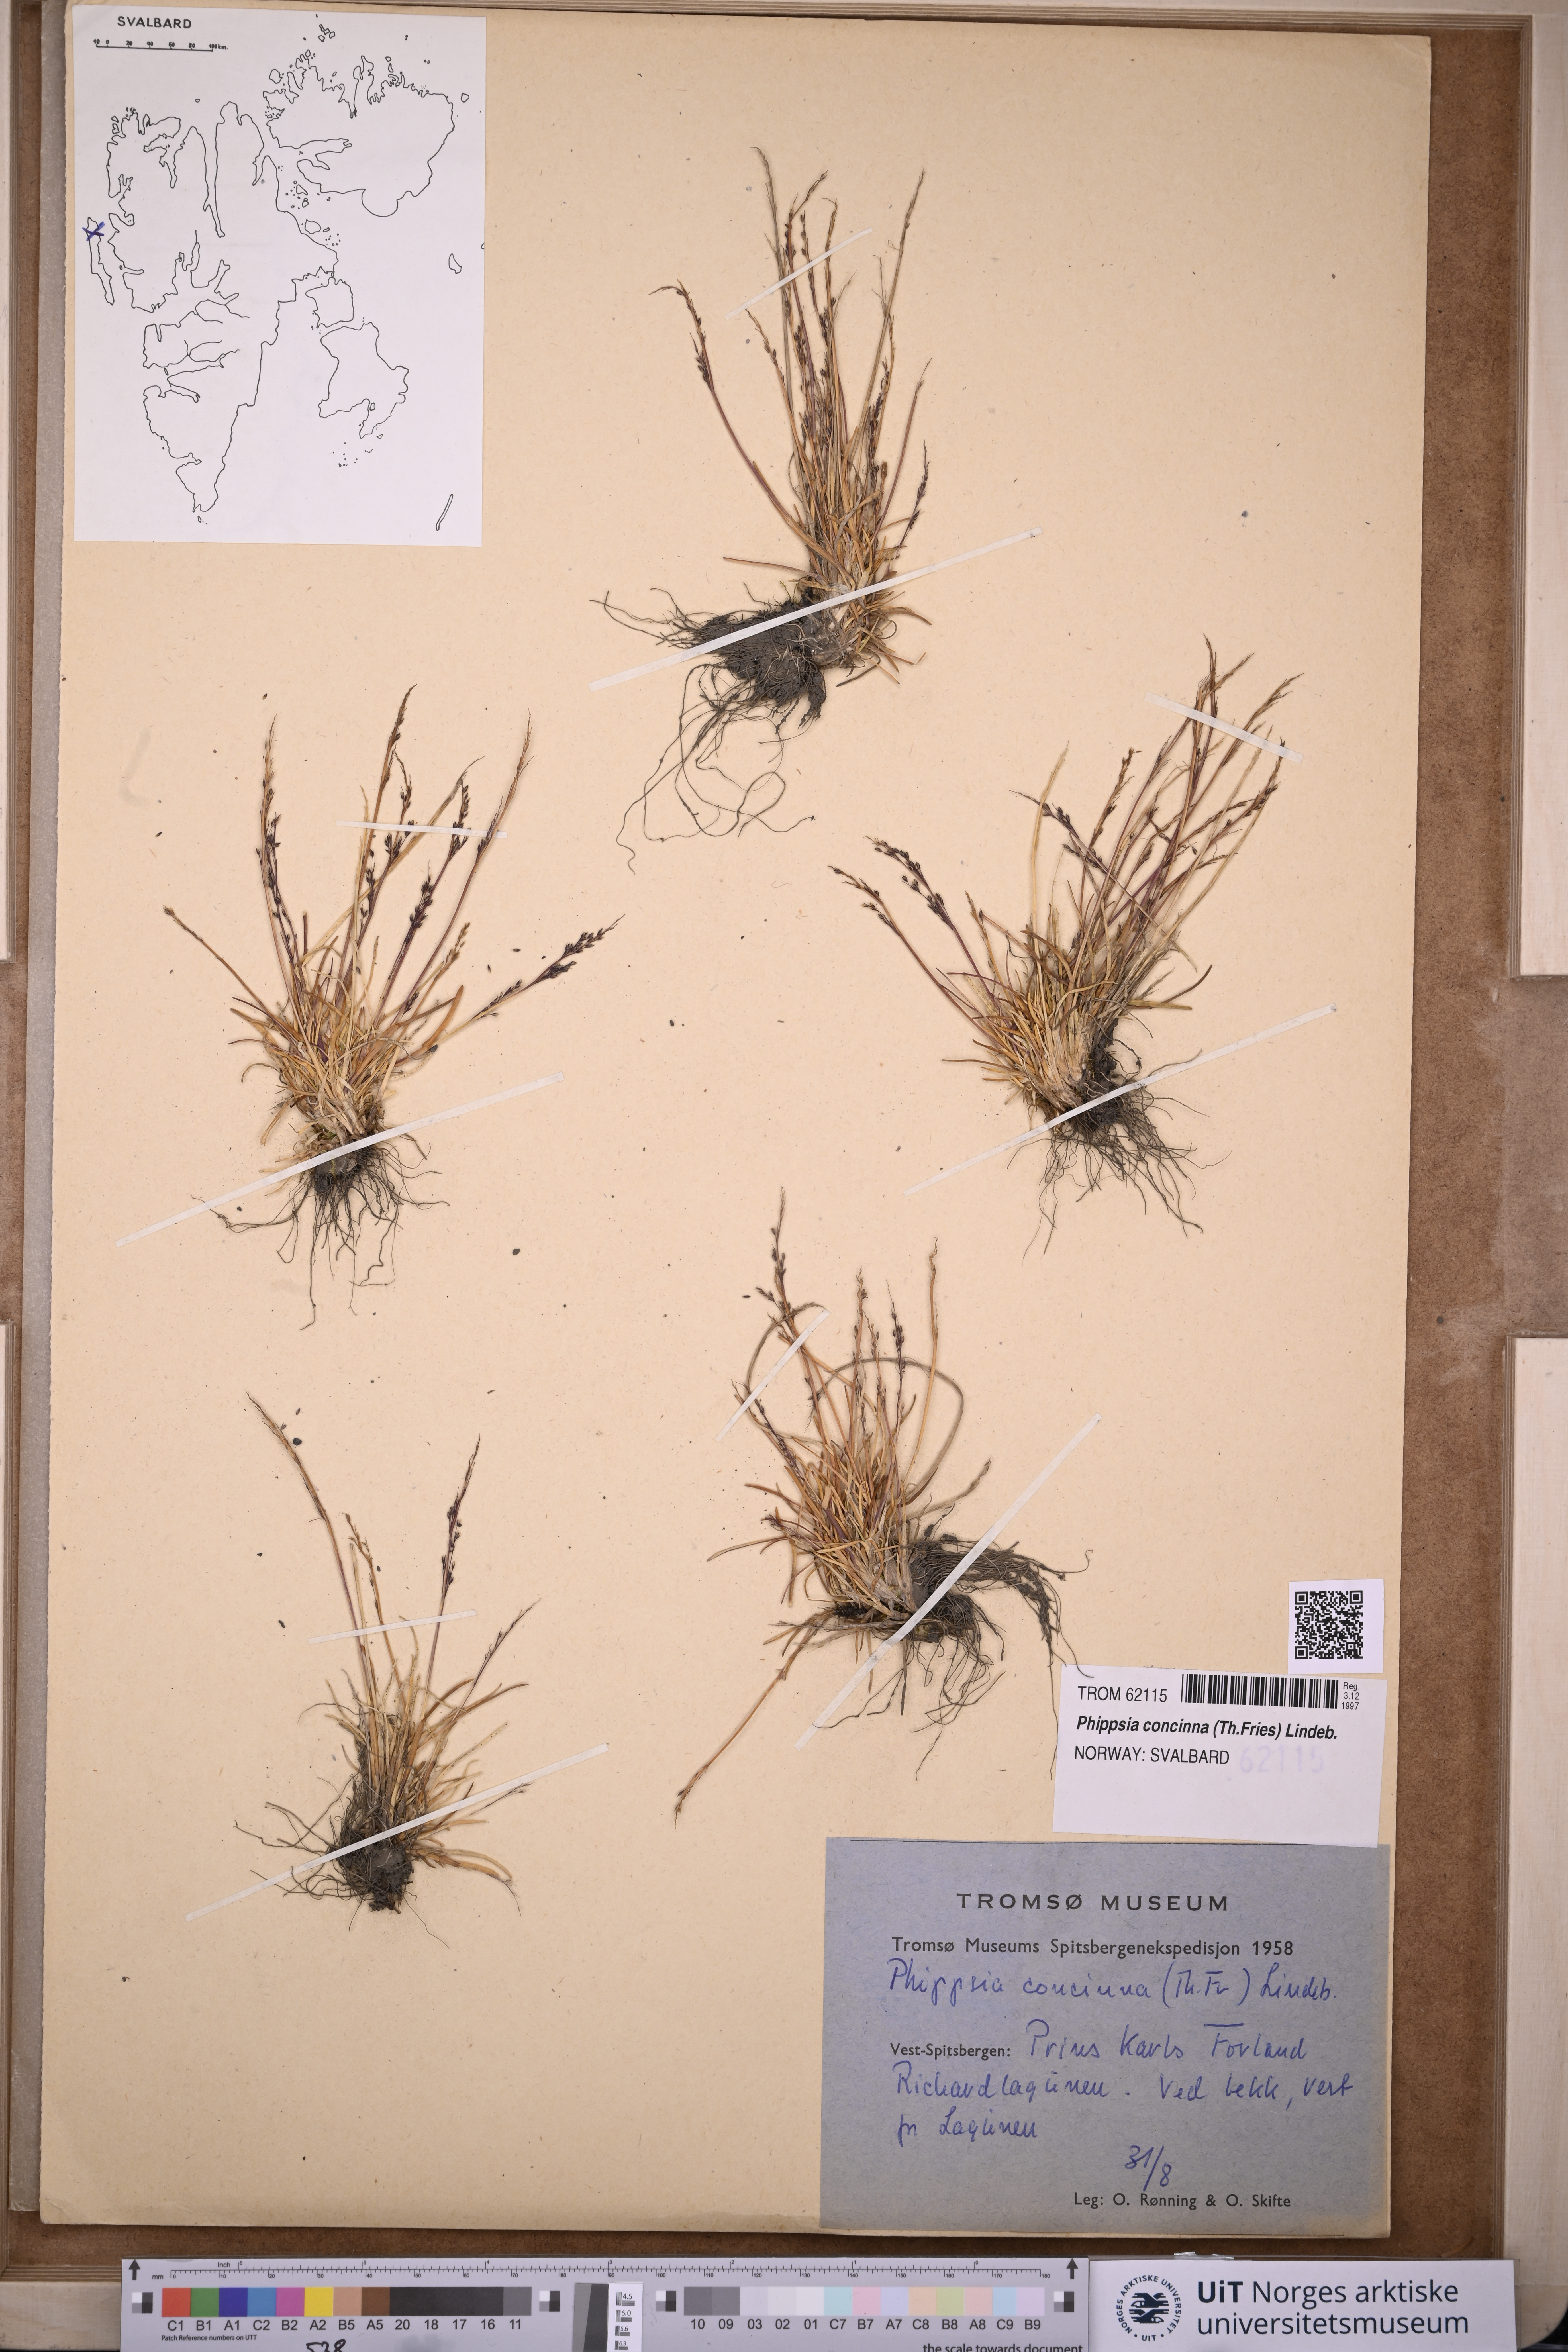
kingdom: Plantae
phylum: Tracheophyta
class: Liliopsida
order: Poales
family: Poaceae
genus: Phippsia
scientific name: Phippsia concinna
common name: Snowgrass
